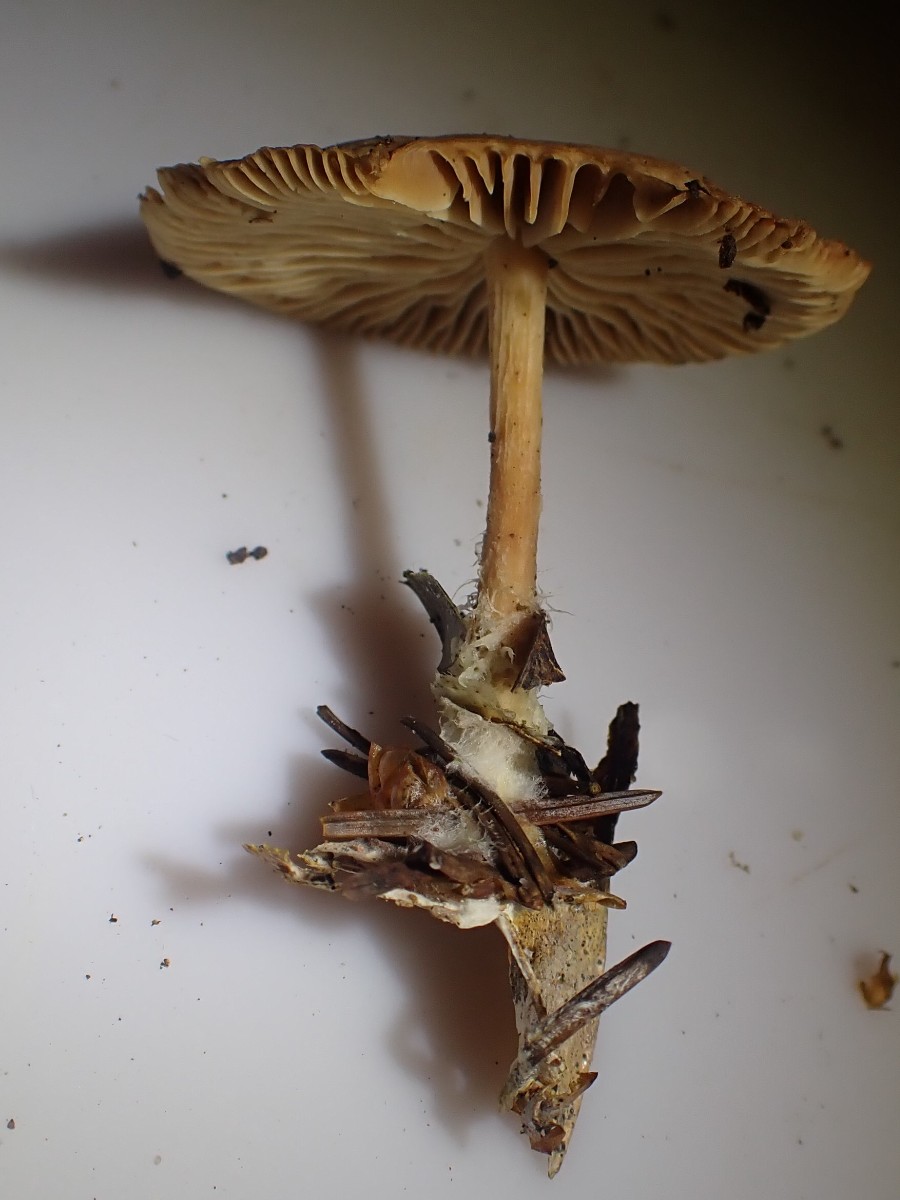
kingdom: Fungi
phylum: Basidiomycota
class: Agaricomycetes
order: Agaricales
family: Omphalotaceae
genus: Collybiopsis
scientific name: Collybiopsis peronata
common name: bestøvlet fladhat
